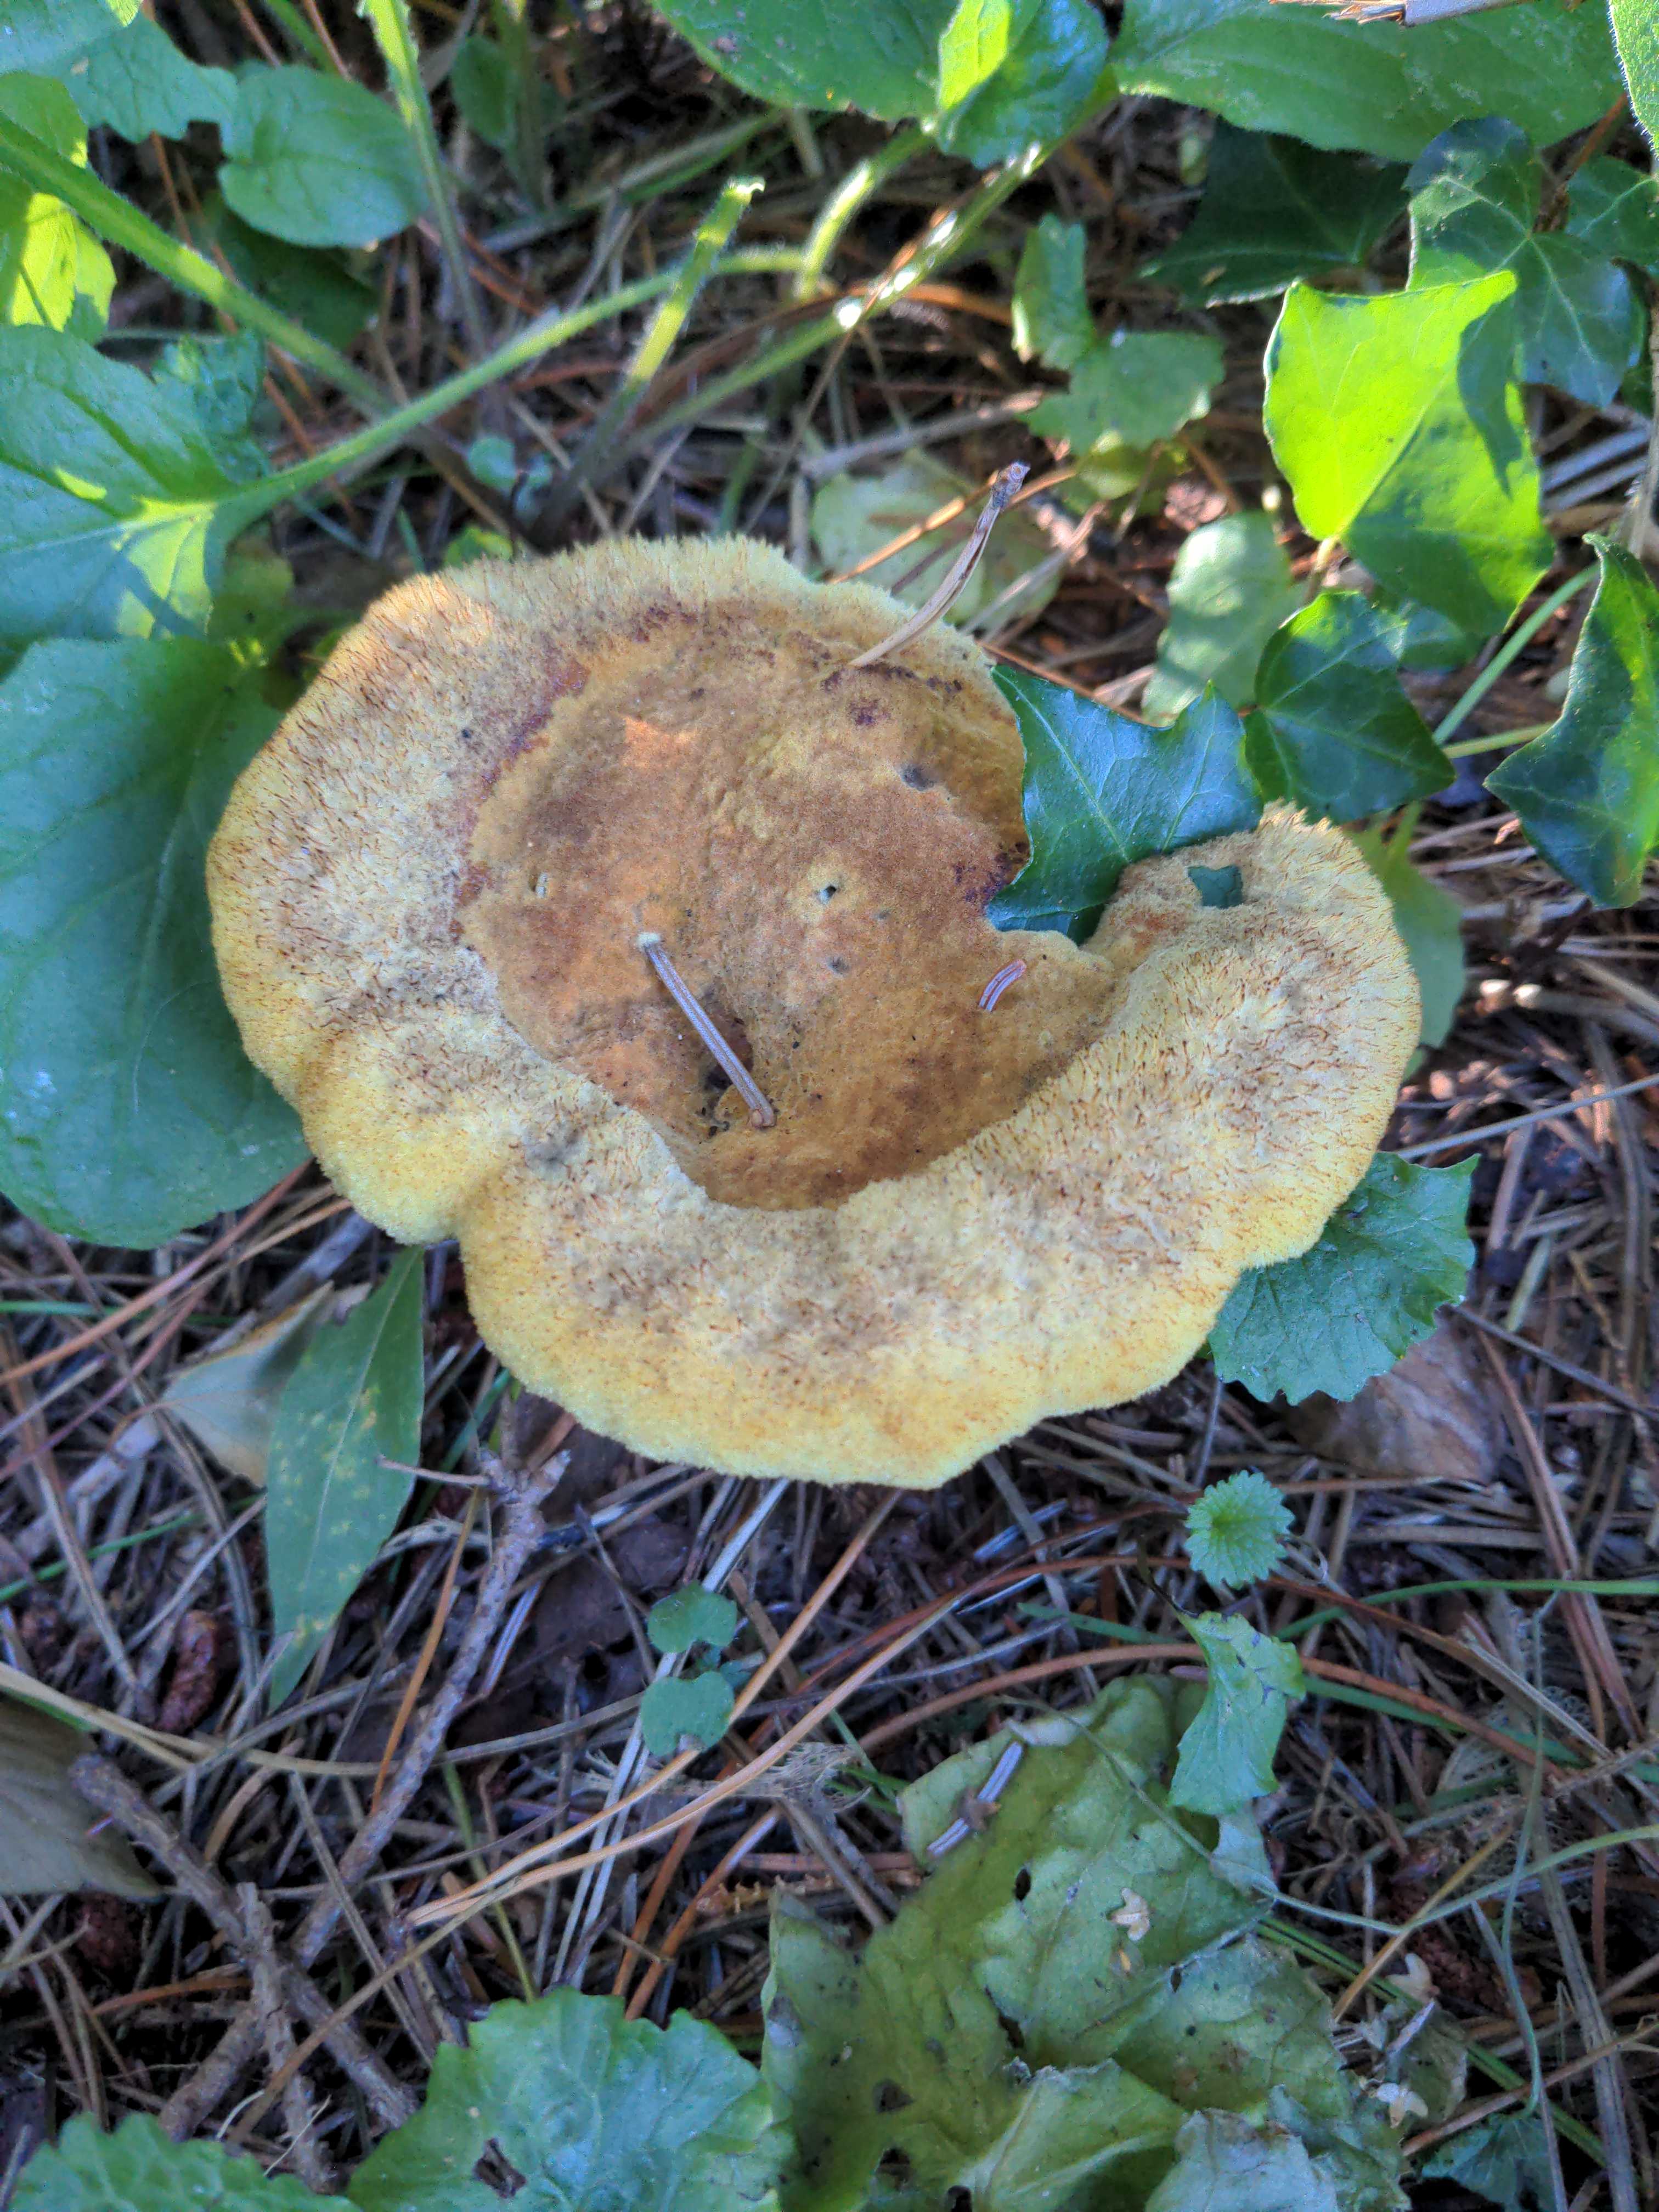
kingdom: Fungi
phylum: Basidiomycota
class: Agaricomycetes
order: Polyporales
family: Laetiporaceae
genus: Phaeolus
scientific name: Phaeolus schweinitzii
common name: brunporesvamp
